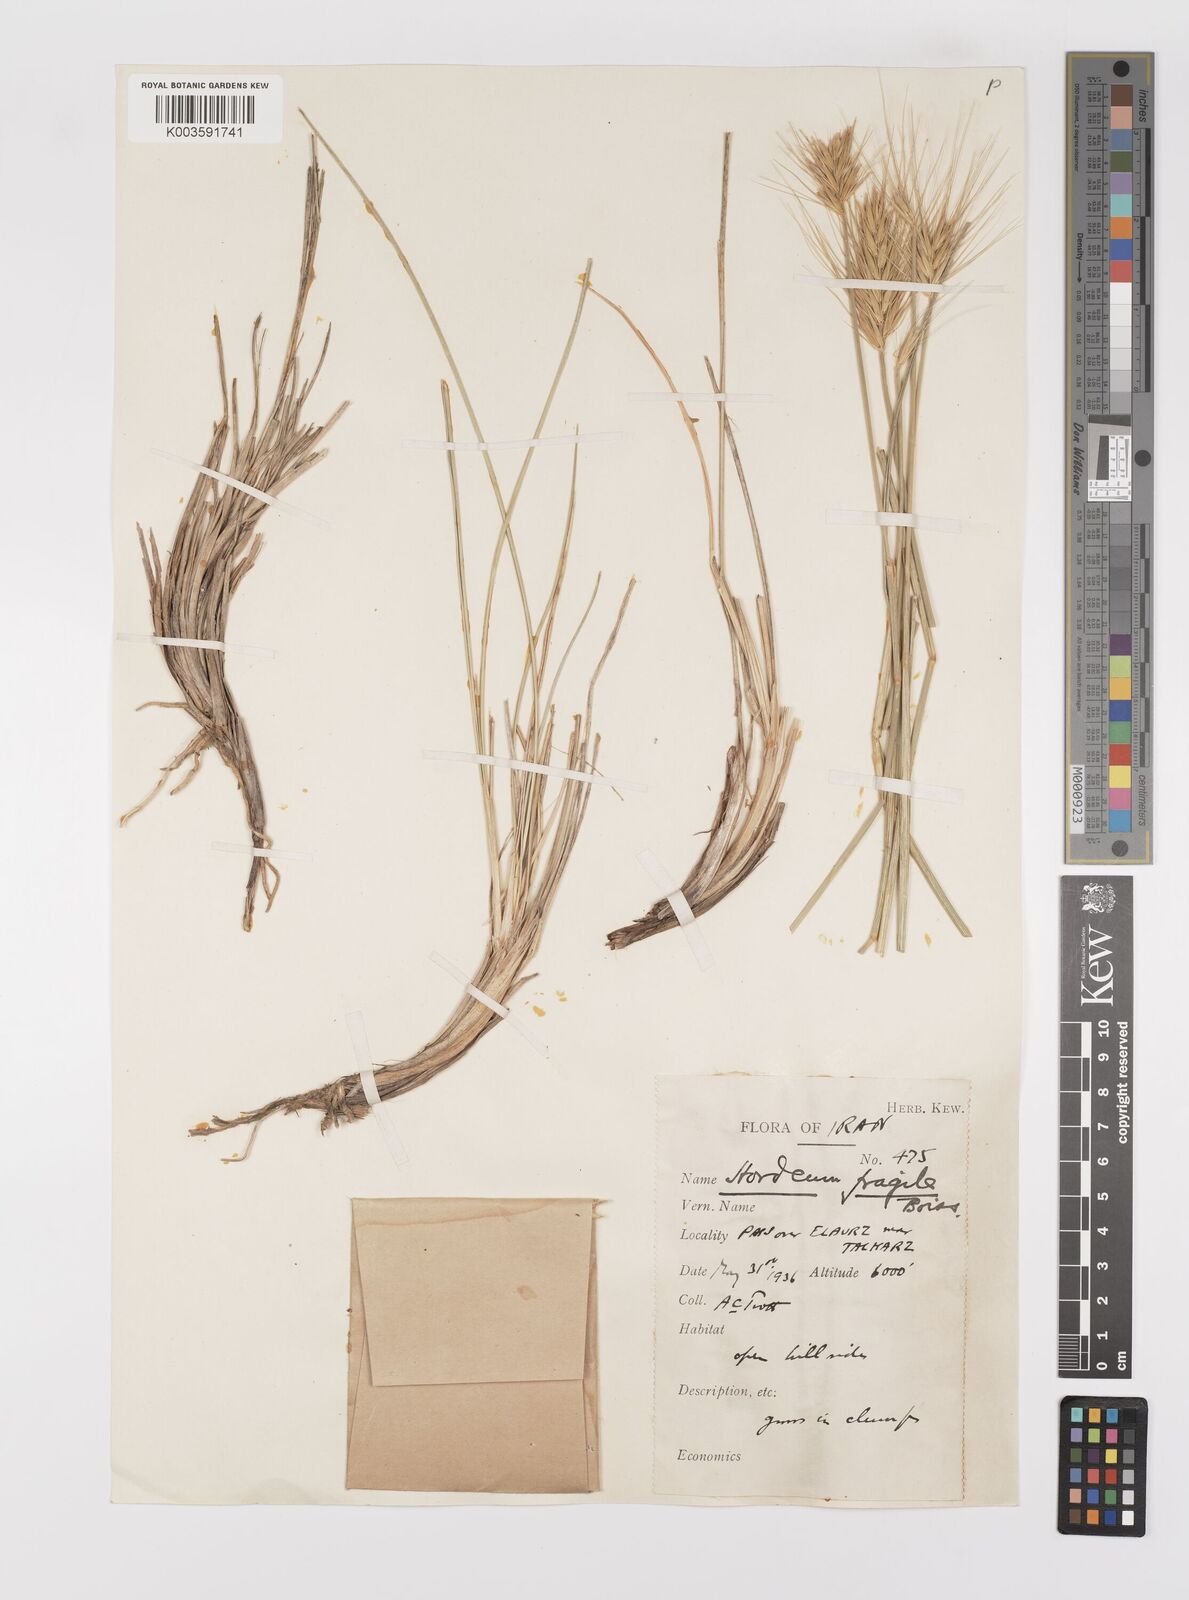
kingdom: Plantae
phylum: Tracheophyta
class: Liliopsida
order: Poales
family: Poaceae
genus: Psathyrostachys
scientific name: Psathyrostachys fragilis
